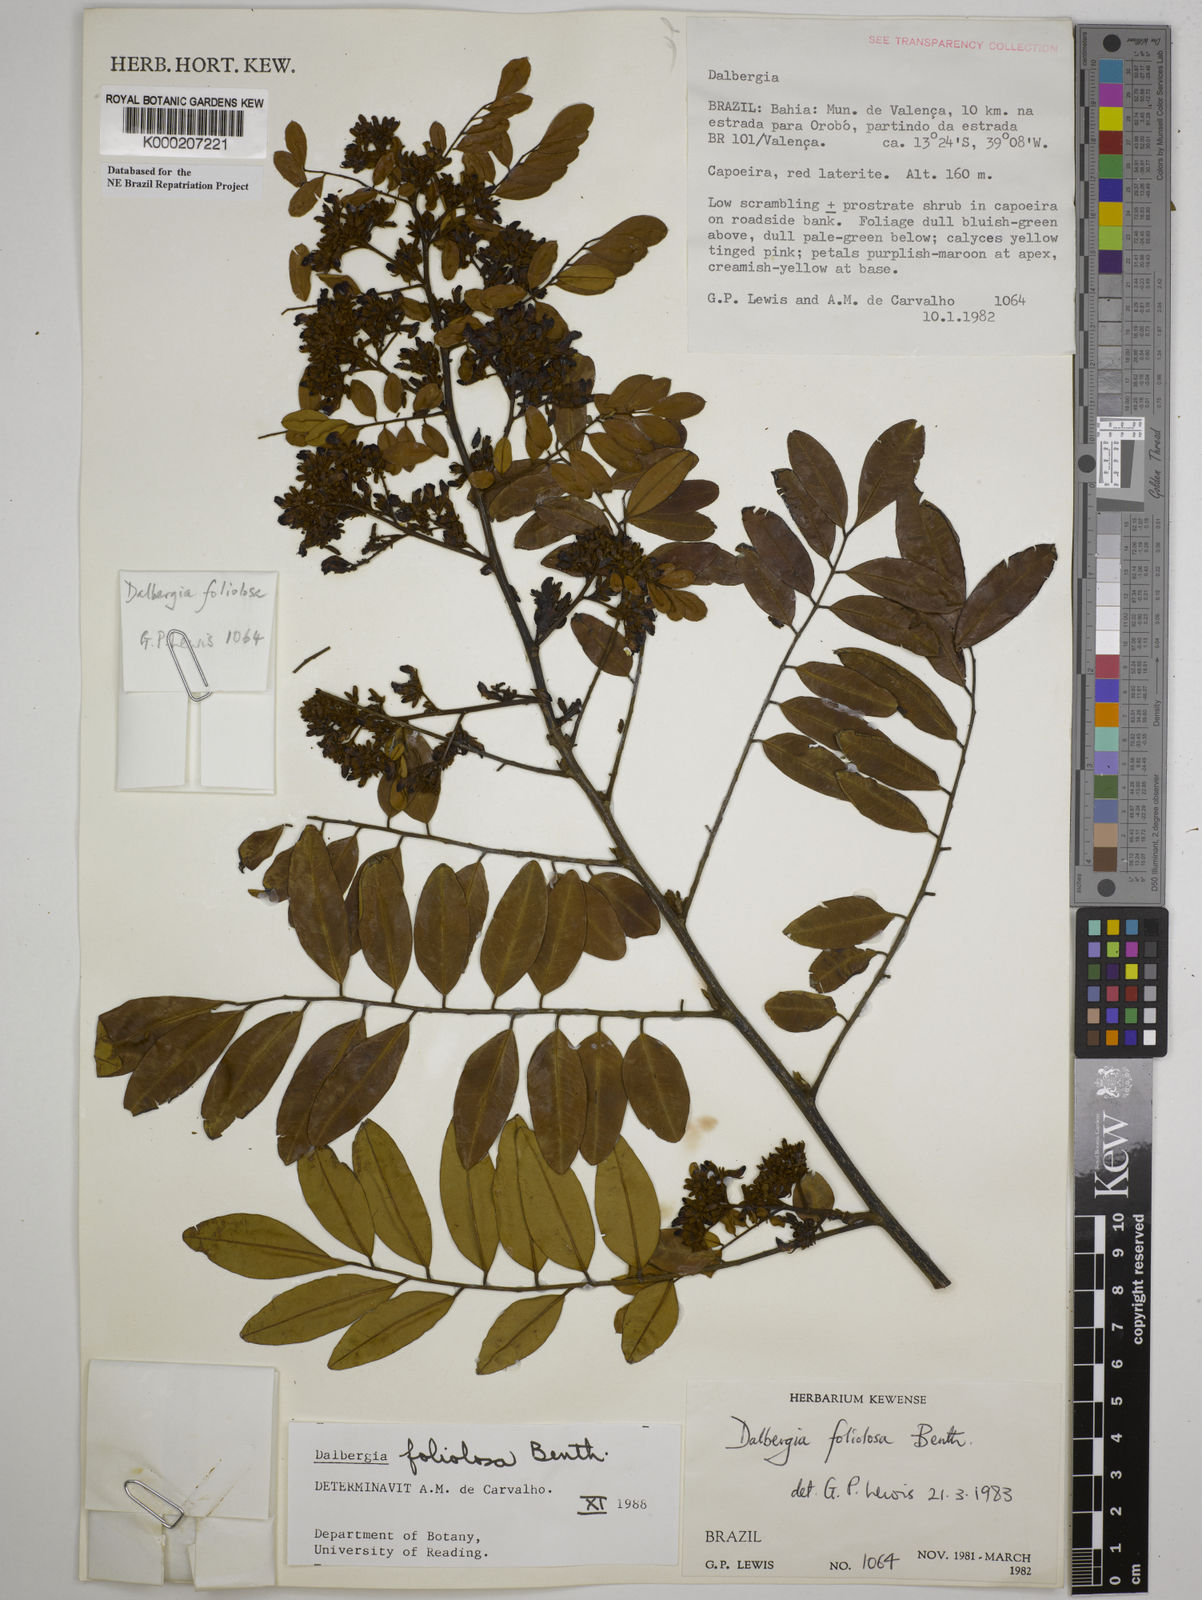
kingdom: Plantae
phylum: Tracheophyta
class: Magnoliopsida
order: Fabales
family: Fabaceae
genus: Dalbergia
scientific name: Dalbergia foliolosa
